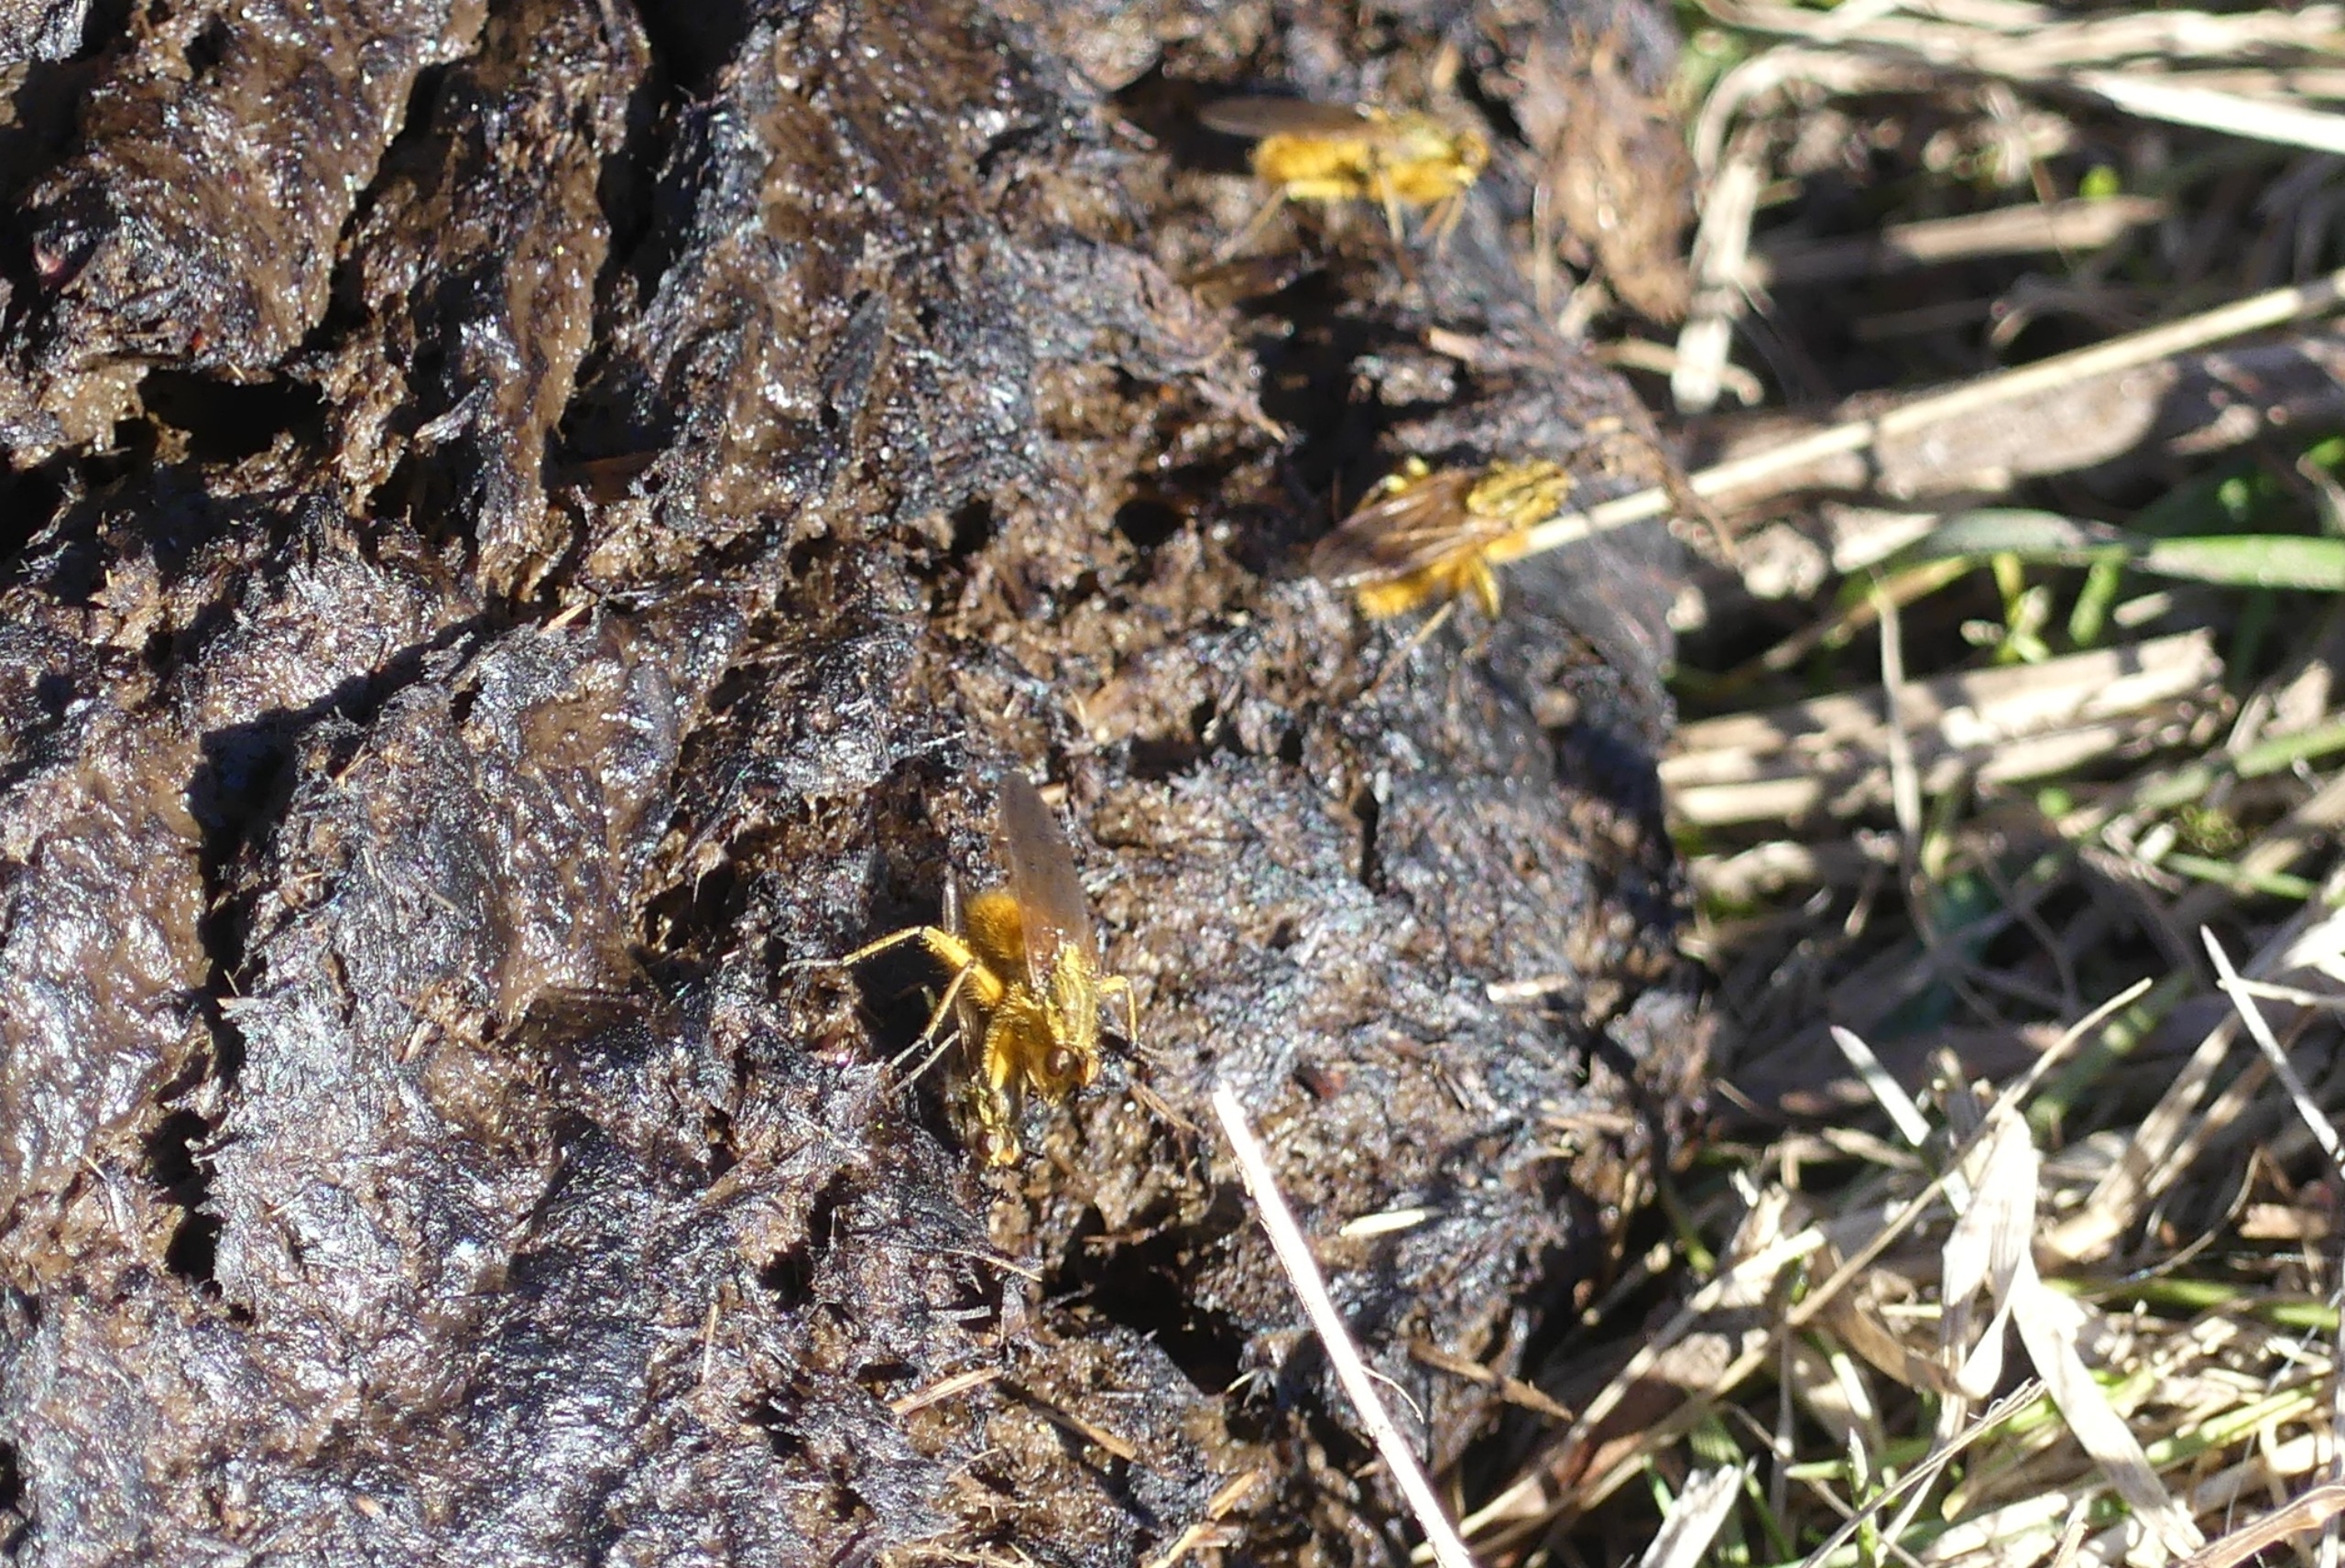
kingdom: Animalia
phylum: Arthropoda
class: Insecta
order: Diptera
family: Scathophagidae
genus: Scathophaga
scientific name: Scathophaga stercoraria
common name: Almindelig gødningsflue
